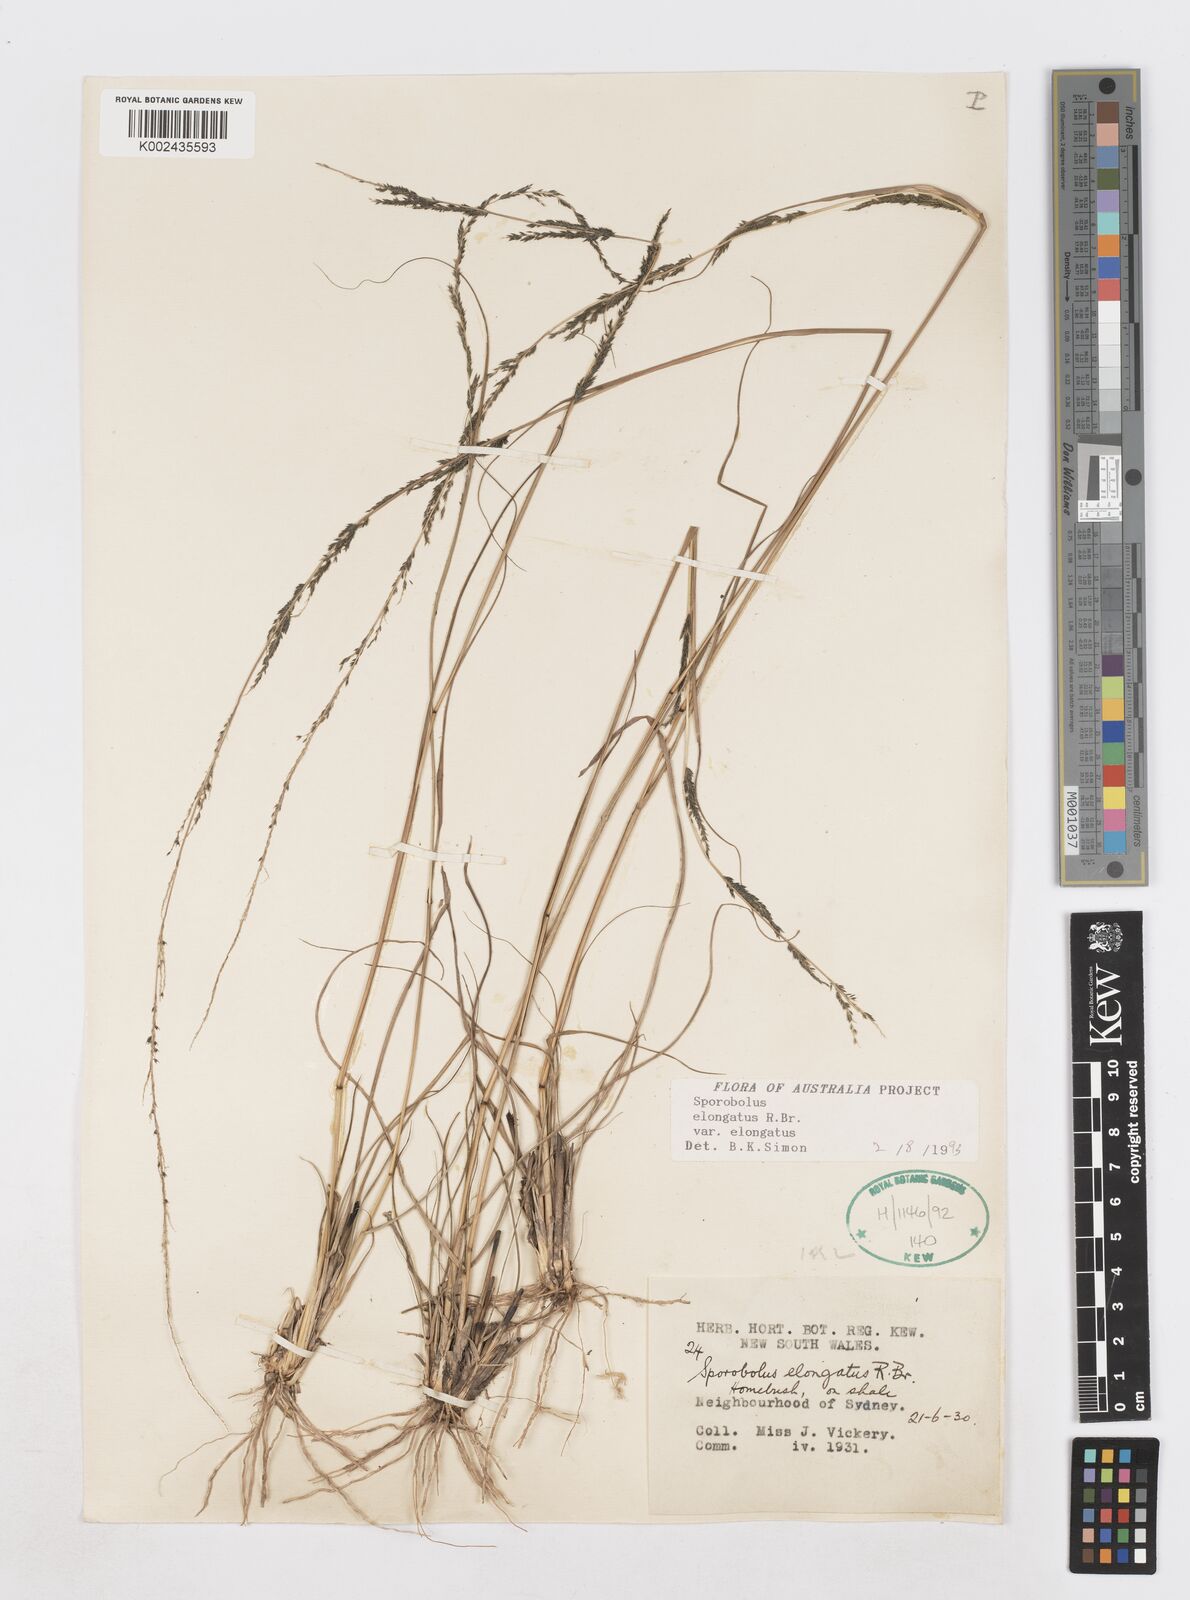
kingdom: Plantae
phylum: Tracheophyta
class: Liliopsida
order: Poales
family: Poaceae
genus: Sporobolus
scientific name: Sporobolus elongatus
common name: Rat tail grass
